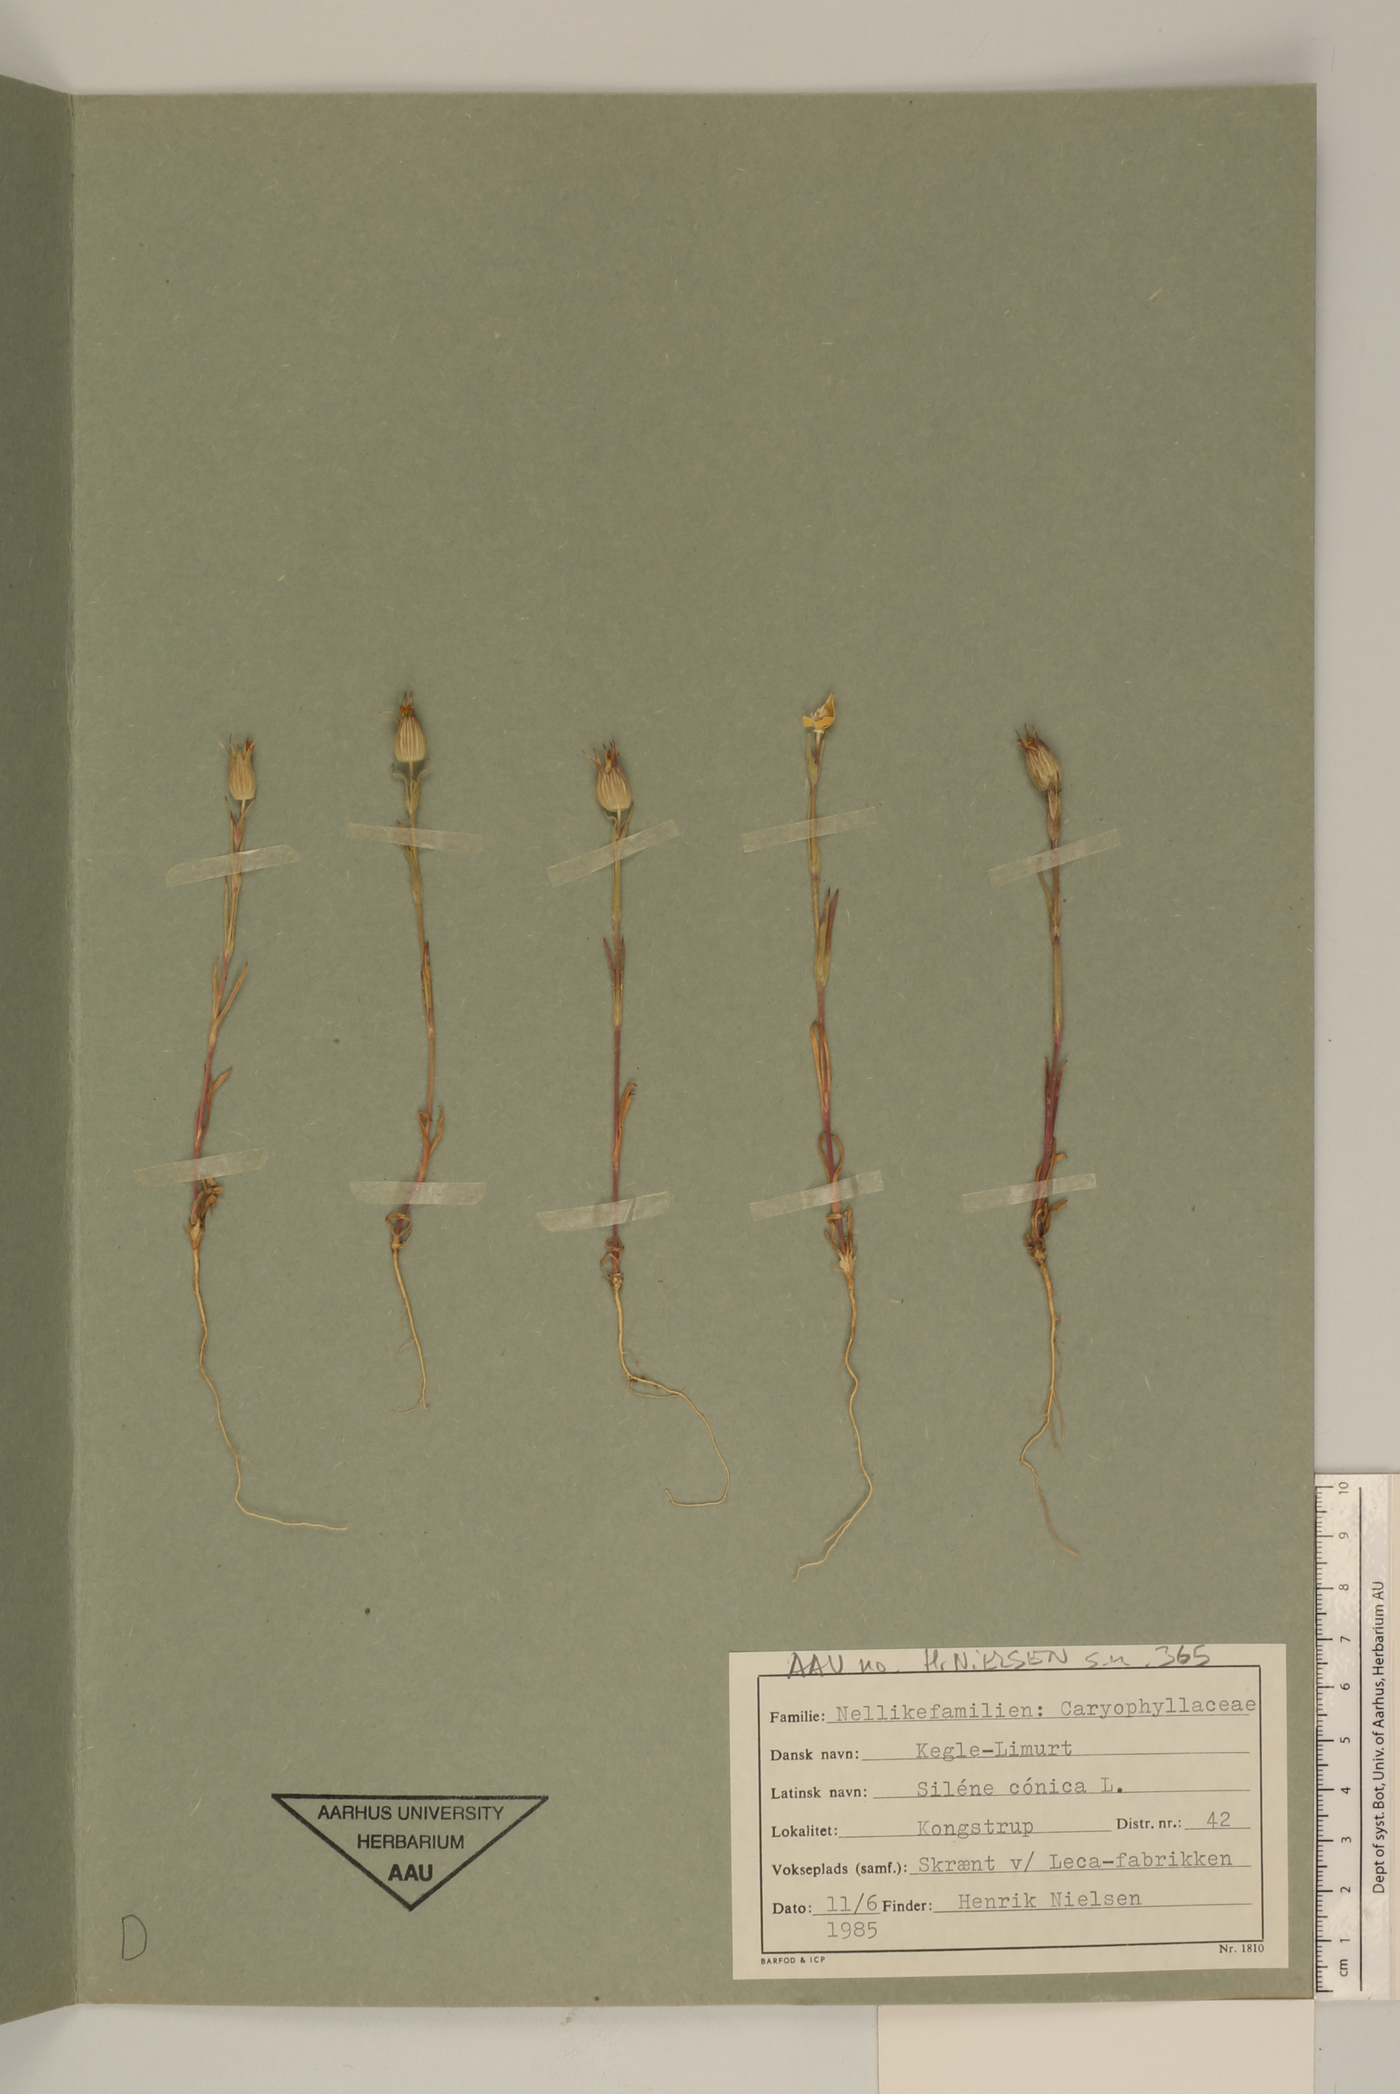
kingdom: Plantae
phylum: Tracheophyta
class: Magnoliopsida
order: Caryophyllales
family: Caryophyllaceae
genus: Silene
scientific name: Silene conica
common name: Sand catchfly
